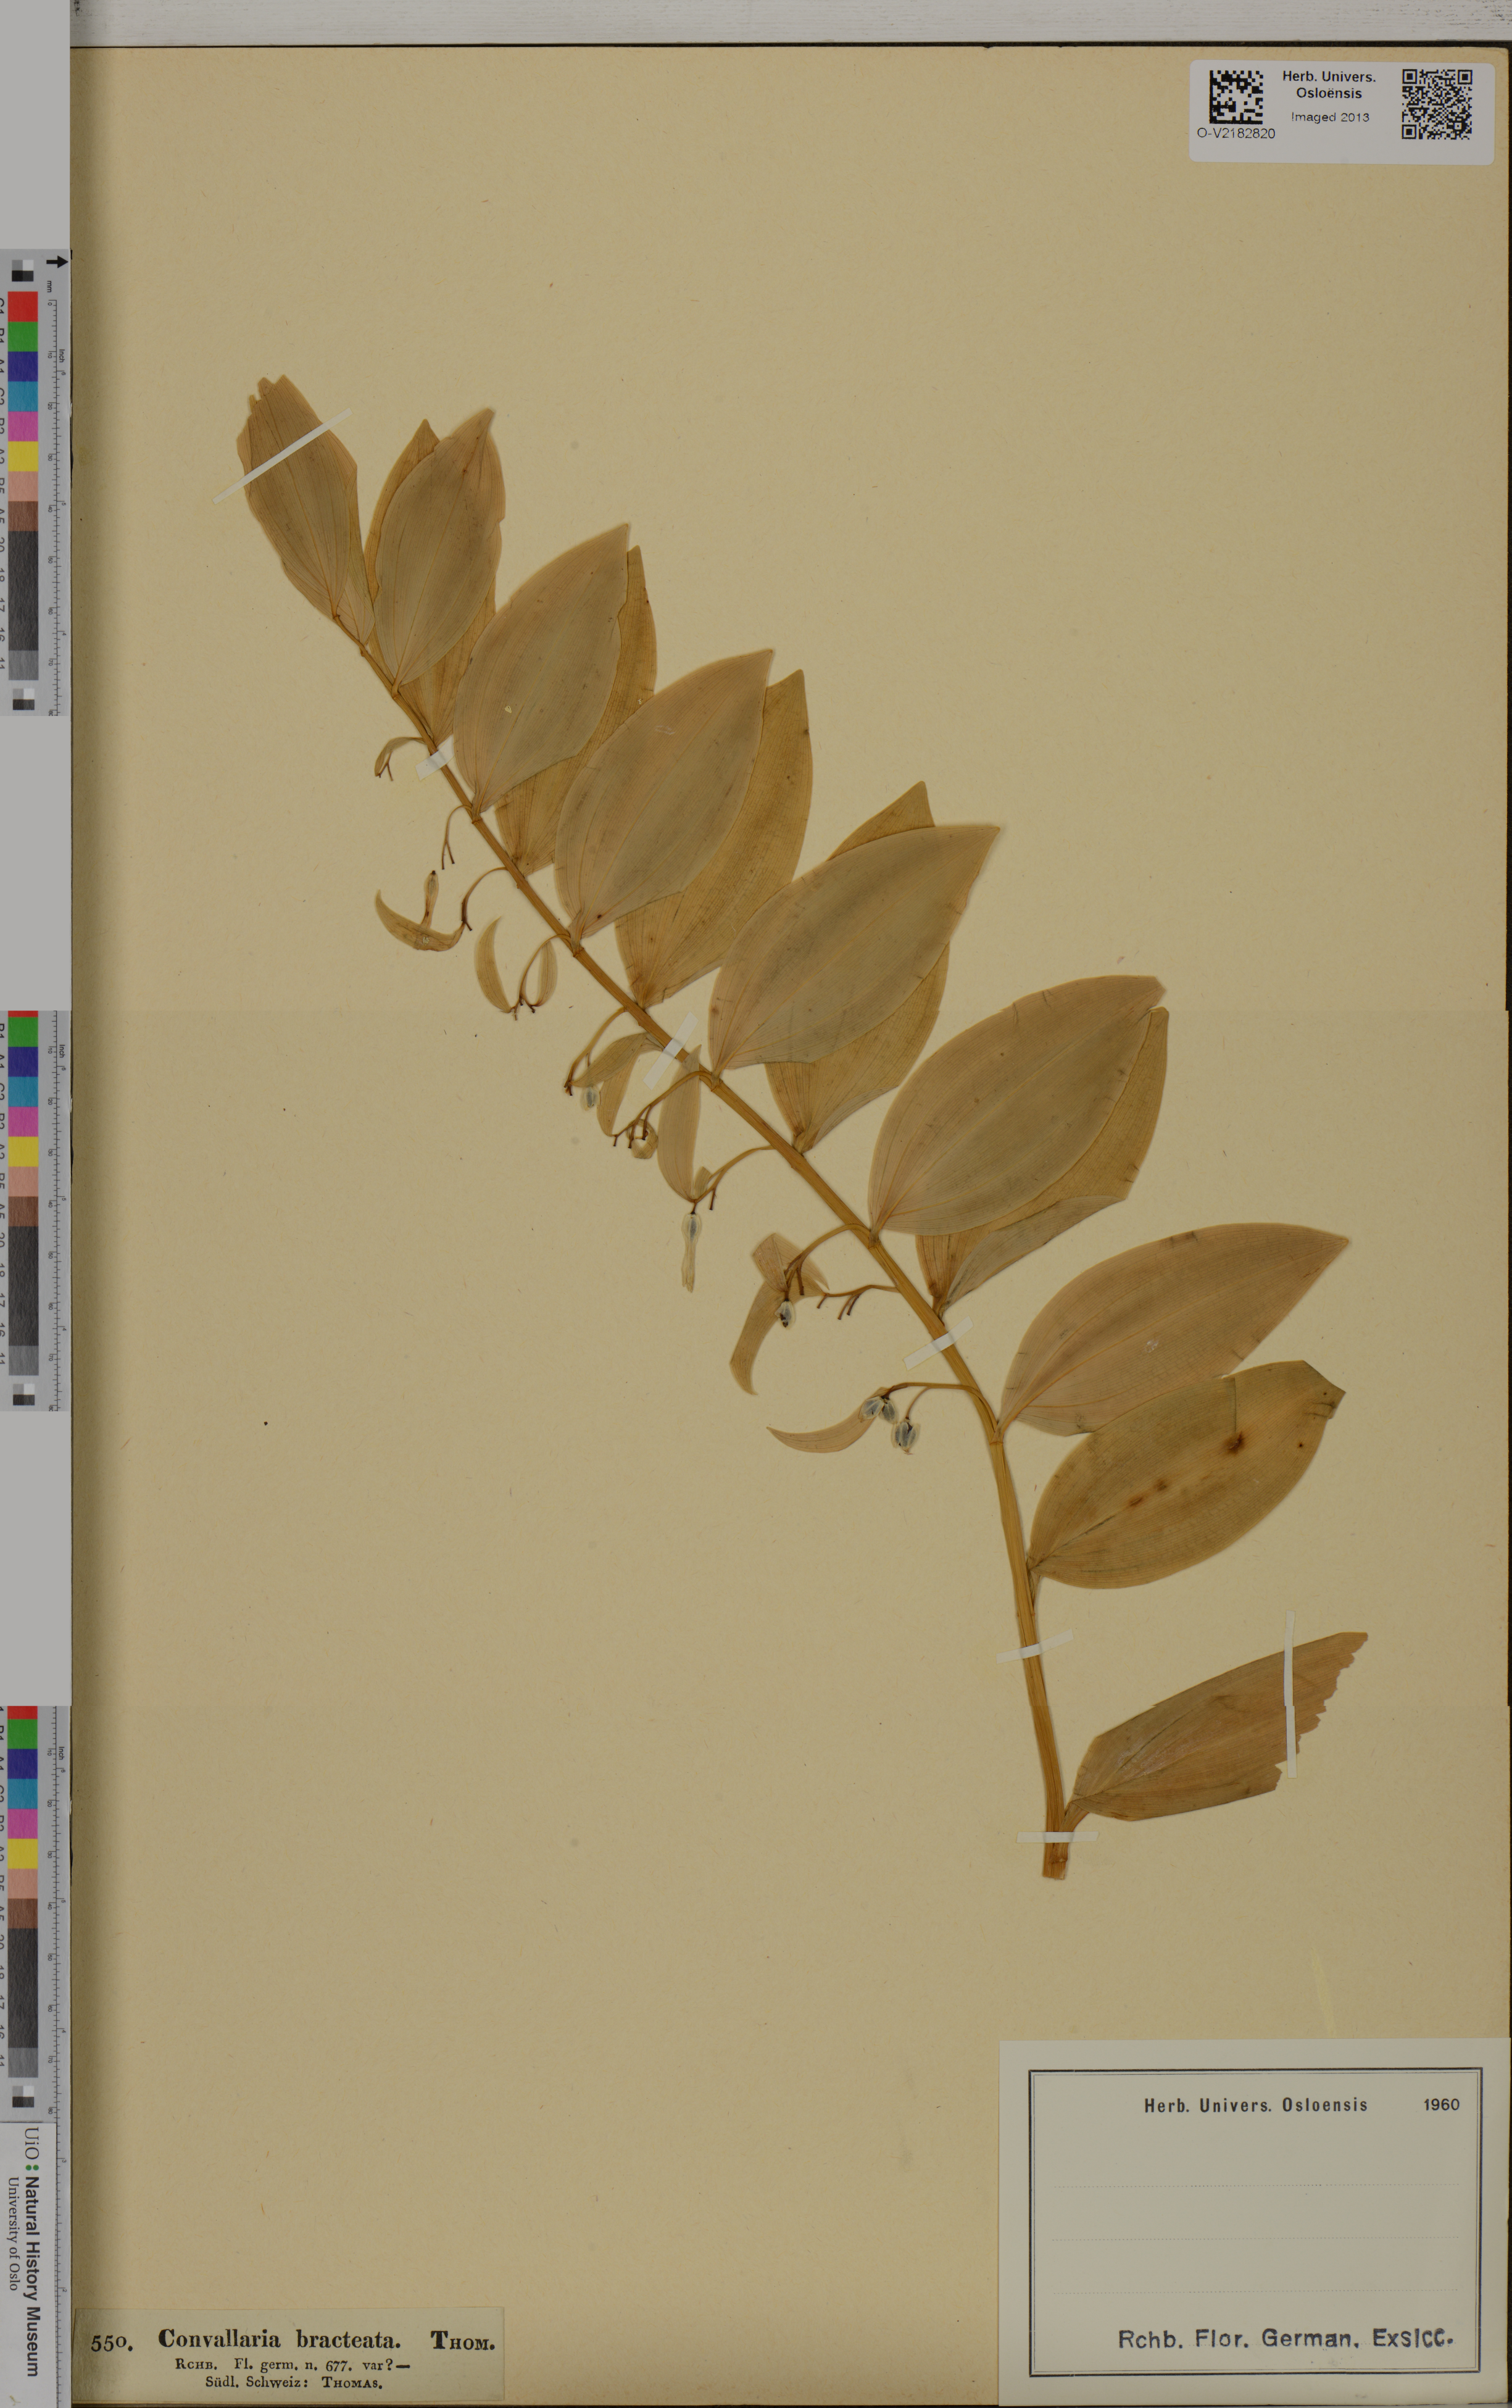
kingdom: Plantae
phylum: Tracheophyta
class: Liliopsida
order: Asparagales
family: Asparagaceae
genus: Polygonatum
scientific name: Polygonatum multiflorum
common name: Solomon's-seal
